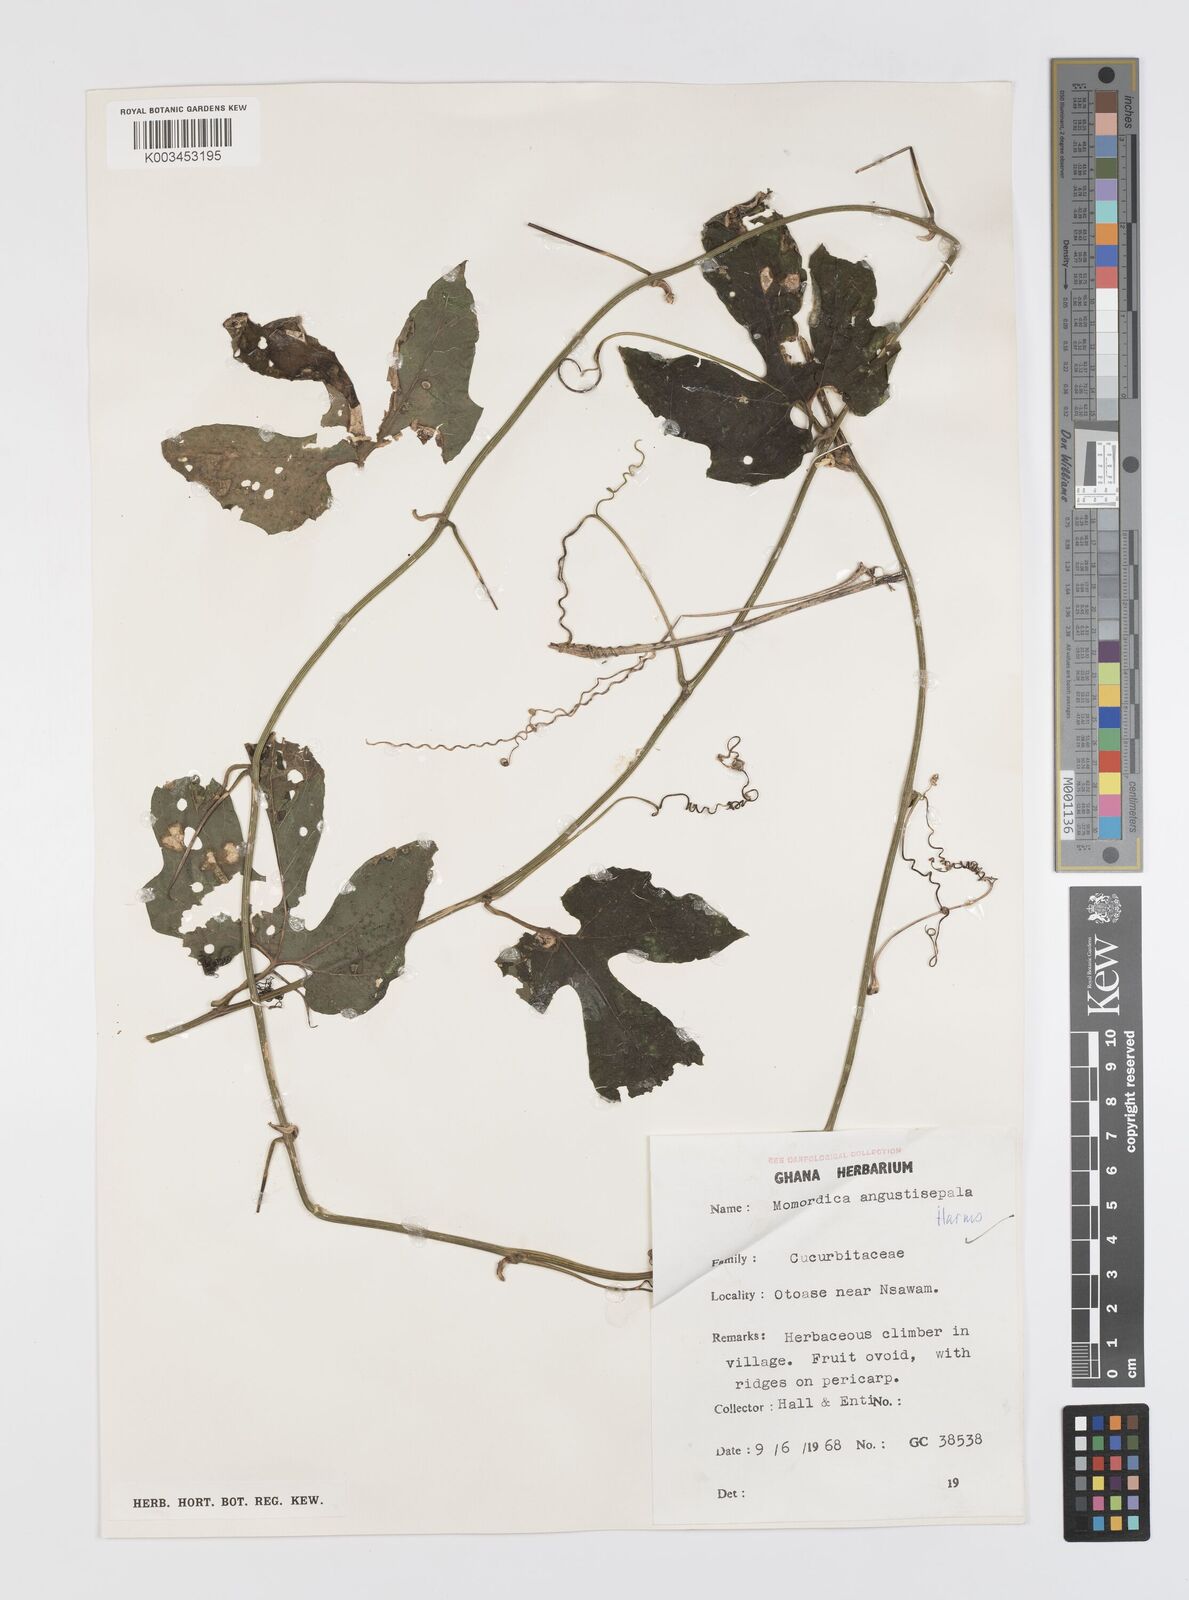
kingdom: Plantae
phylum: Tracheophyta
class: Magnoliopsida
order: Cucurbitales
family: Cucurbitaceae
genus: Momordica
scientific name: Momordica angustisepala
